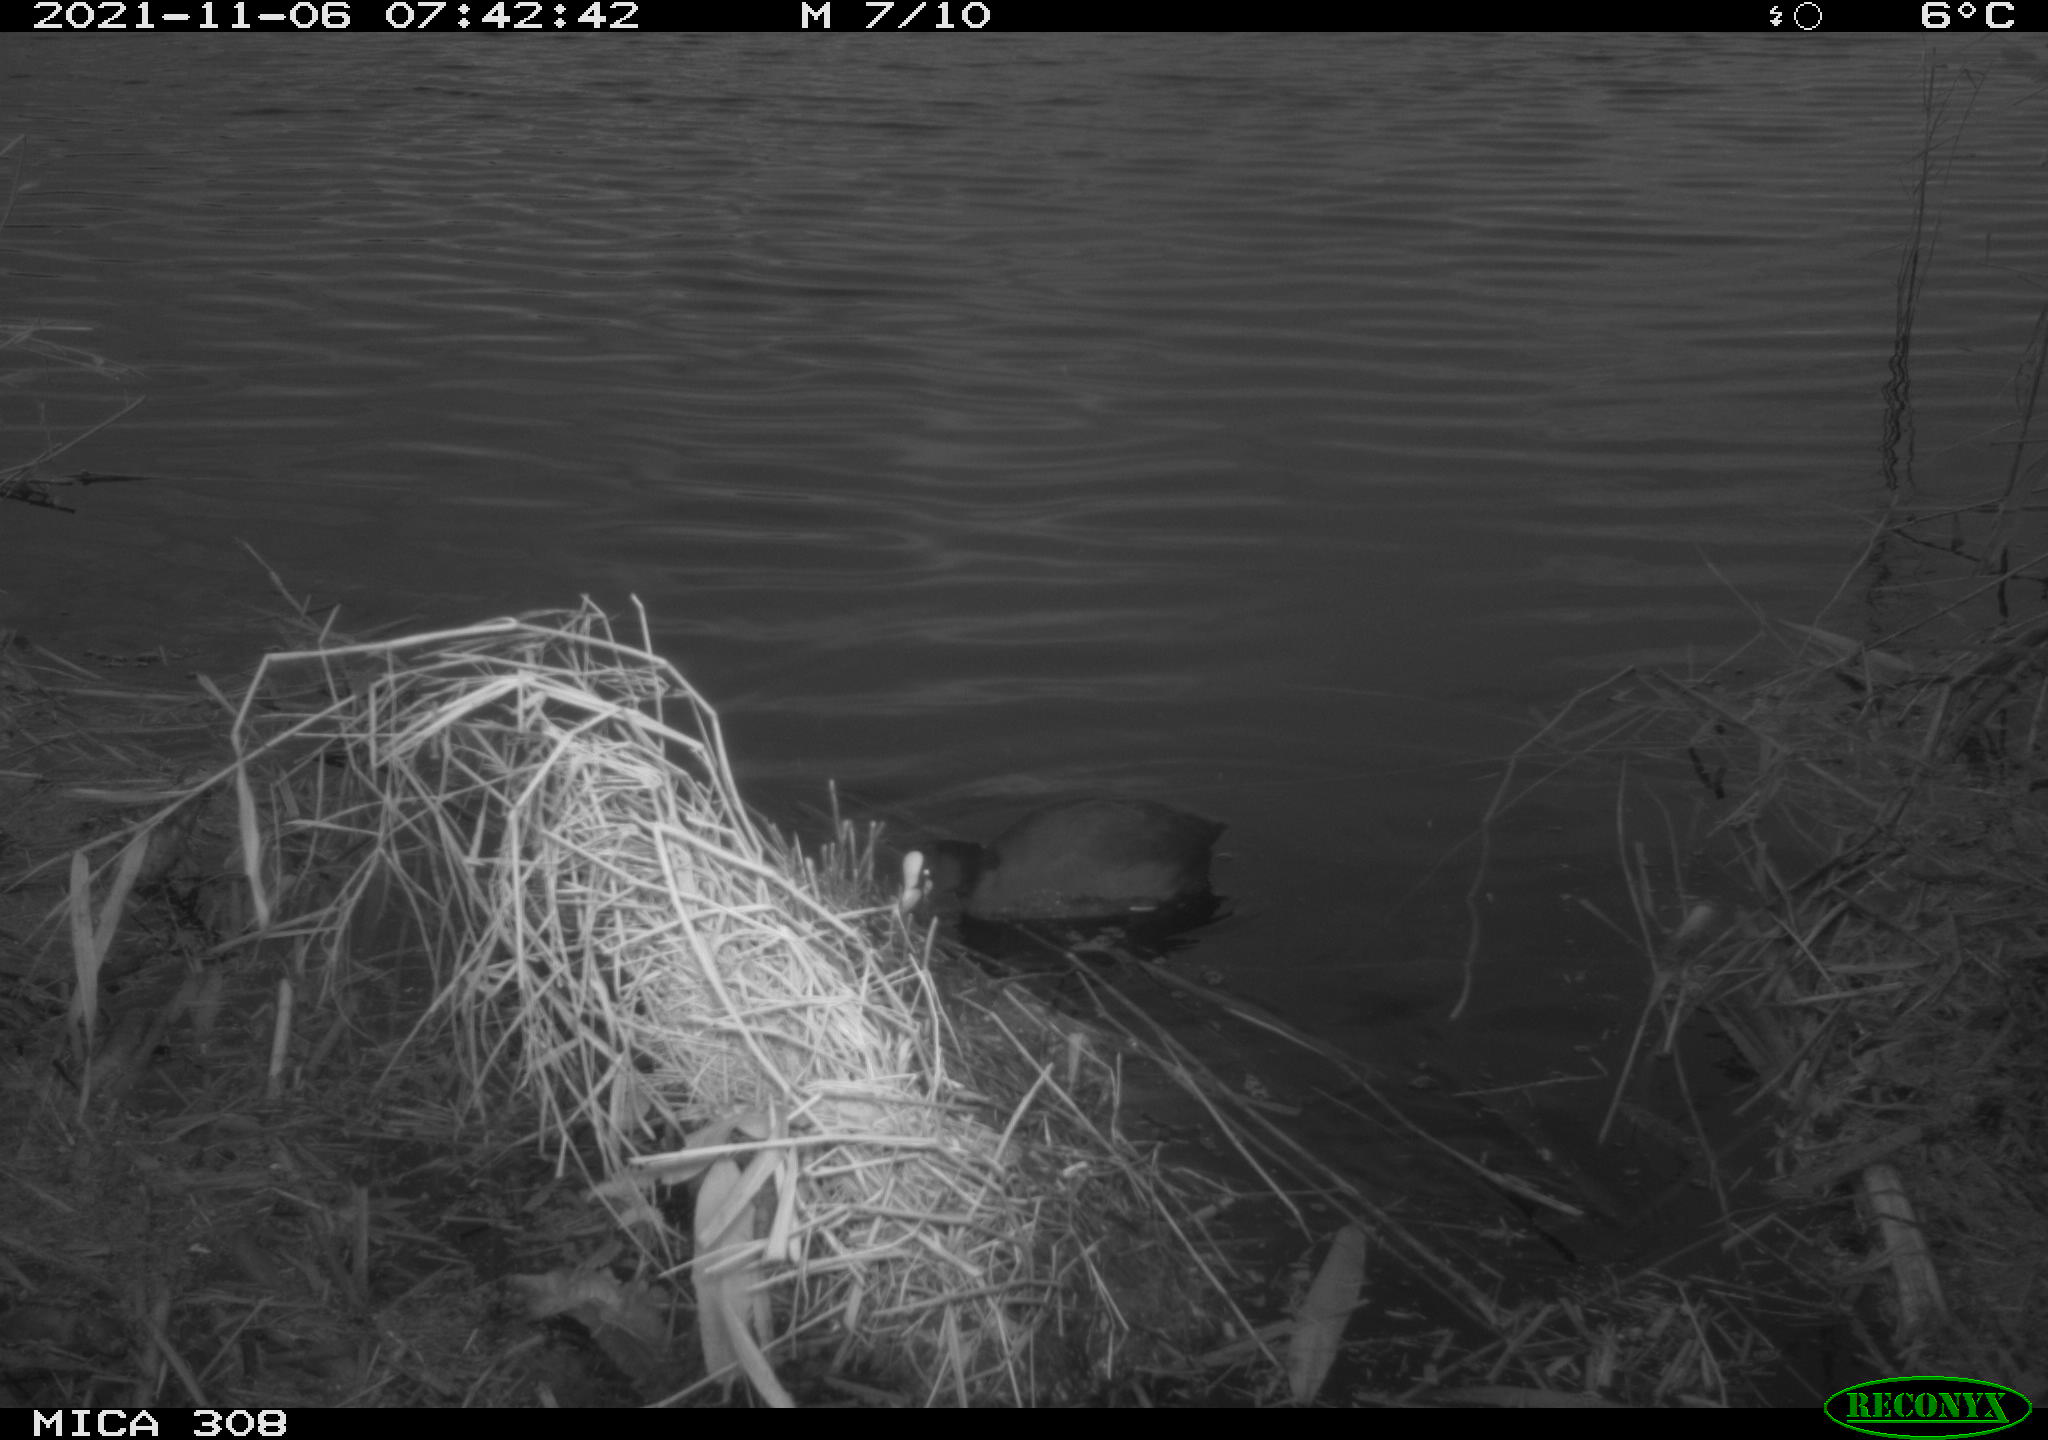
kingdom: Animalia
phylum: Chordata
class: Aves
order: Gruiformes
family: Rallidae
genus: Fulica
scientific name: Fulica atra
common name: Eurasian coot
